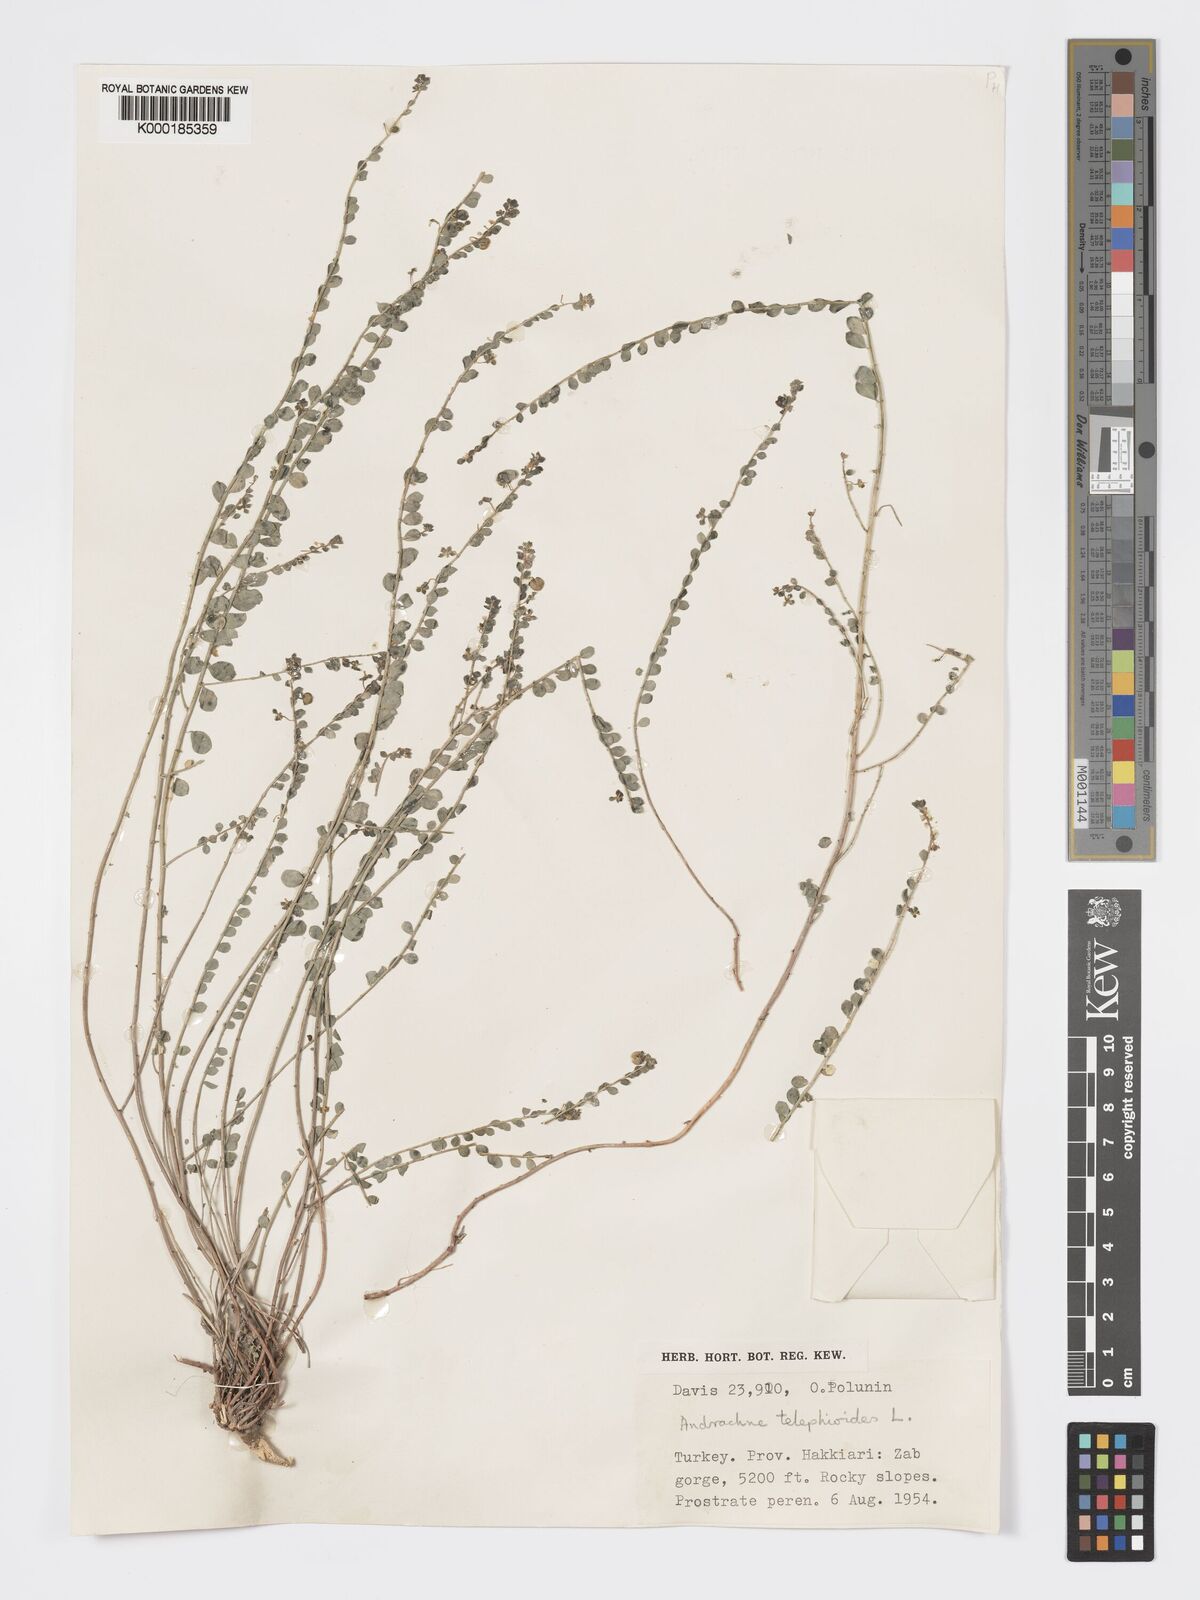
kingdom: Plantae
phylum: Tracheophyta
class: Magnoliopsida
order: Malpighiales
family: Phyllanthaceae
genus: Andrachne
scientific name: Andrachne telephioides
